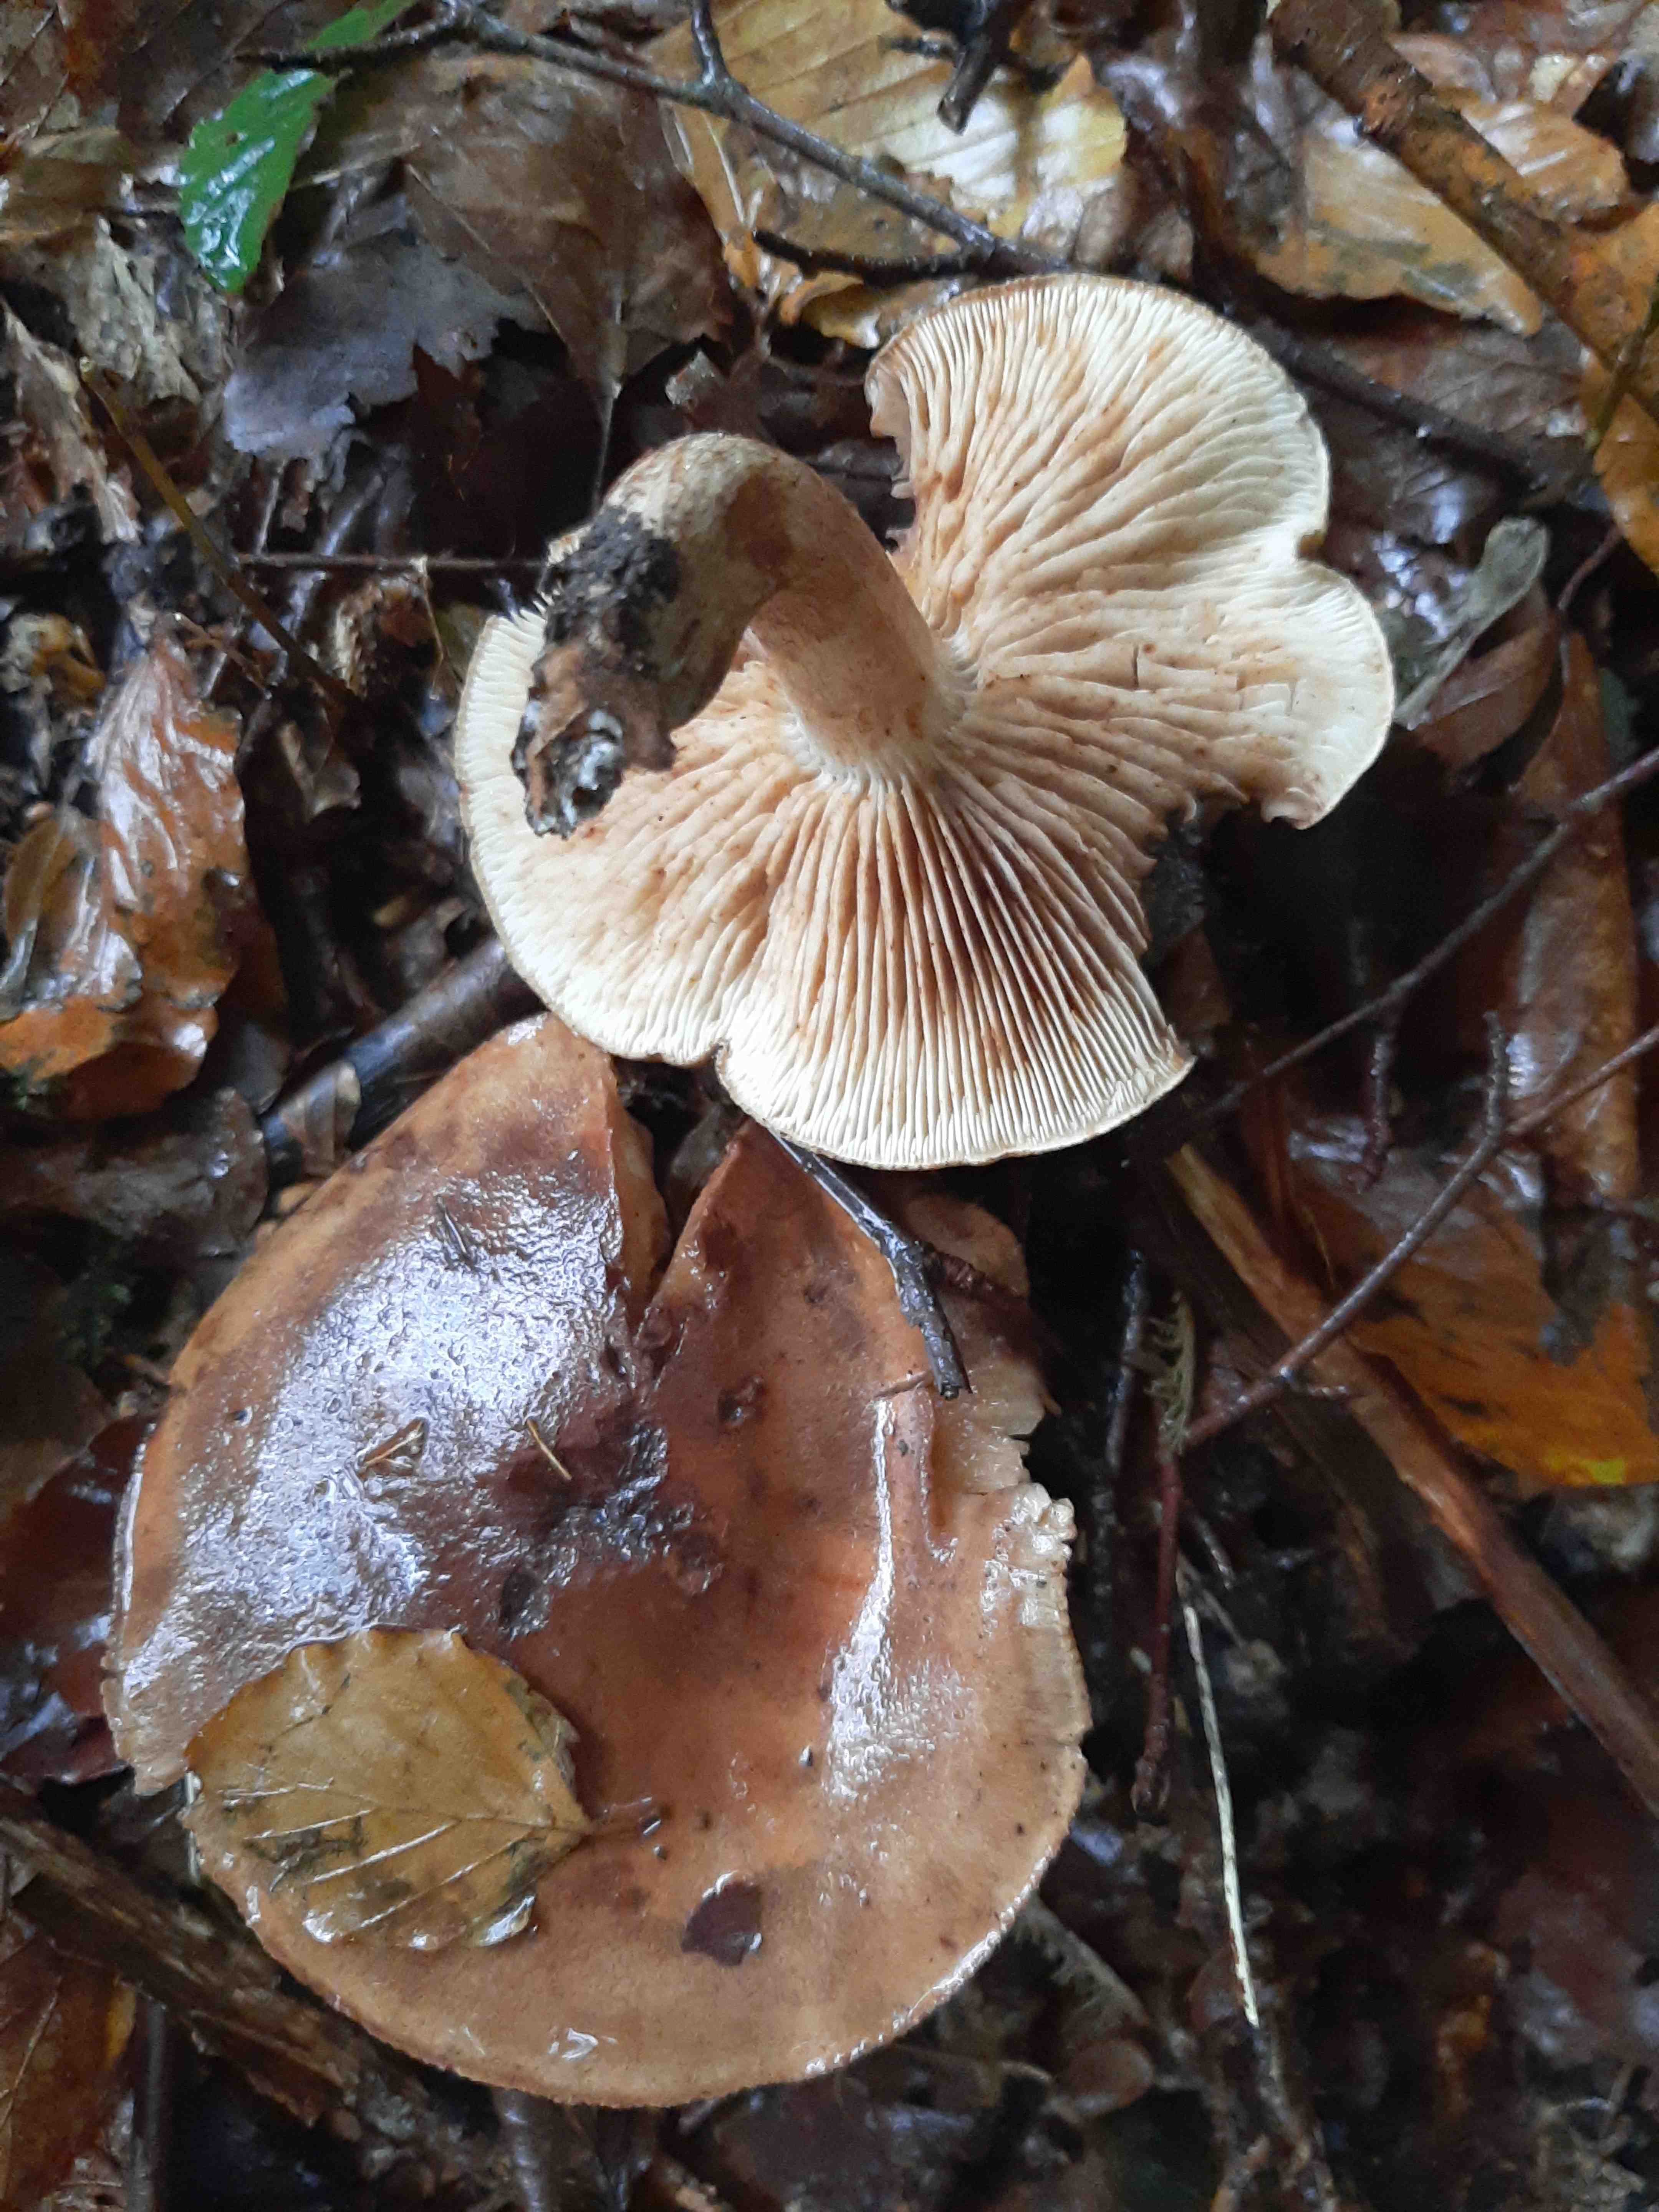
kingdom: Fungi
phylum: Basidiomycota
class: Agaricomycetes
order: Agaricales
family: Tricholomataceae
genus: Tricholoma
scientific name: Tricholoma ustale
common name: sveden ridderhat
